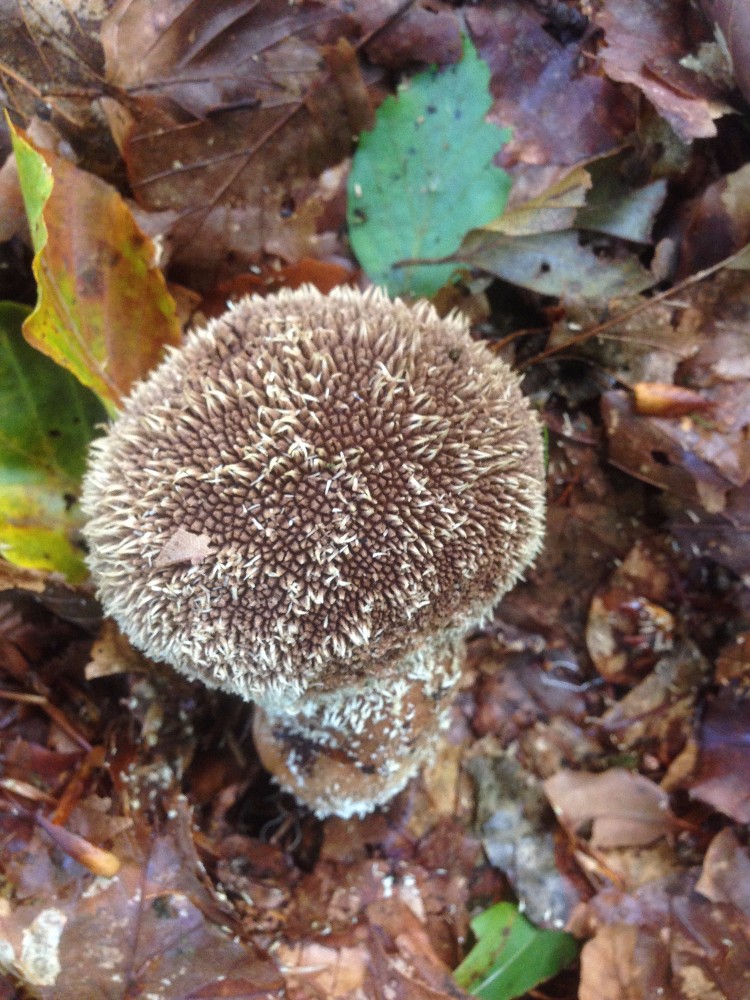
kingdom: Fungi
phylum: Basidiomycota
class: Agaricomycetes
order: Agaricales
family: Lycoperdaceae
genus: Lycoperdon
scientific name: Lycoperdon echinatum
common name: pindsvine-støvbold
